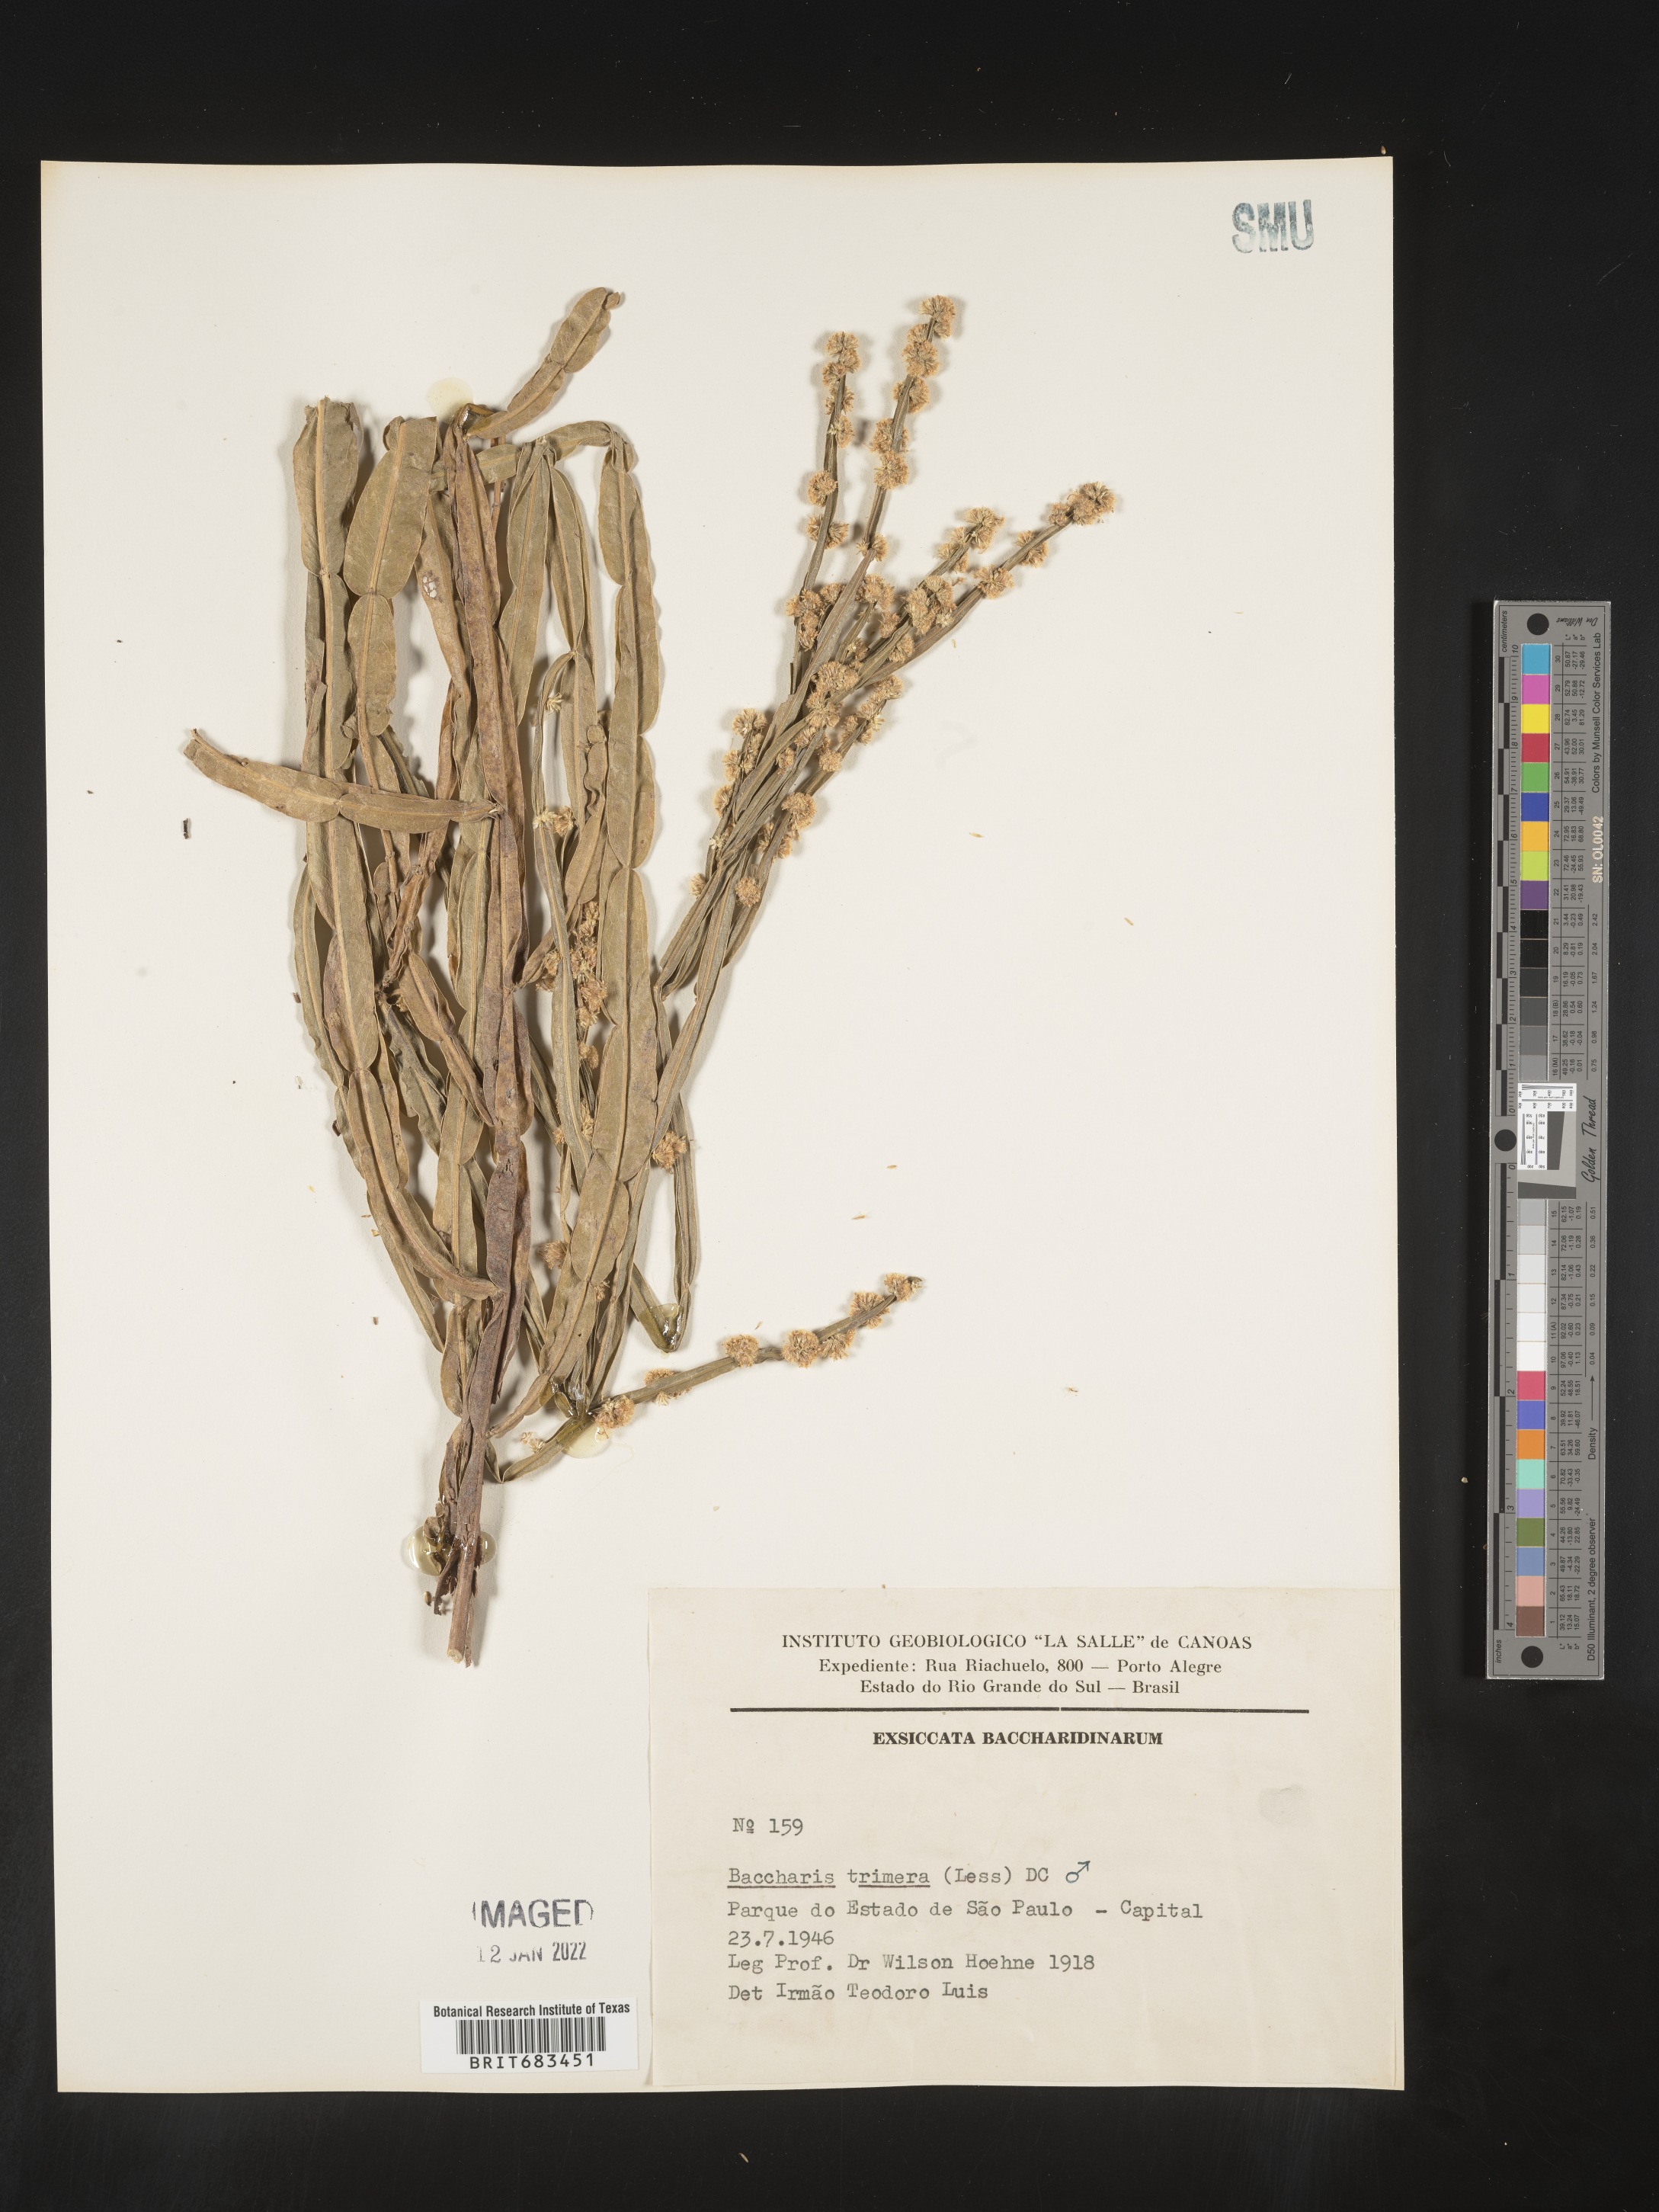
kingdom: Plantae
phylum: Tracheophyta
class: Magnoliopsida
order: Asterales
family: Asteraceae
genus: Baccharis
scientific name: Baccharis
